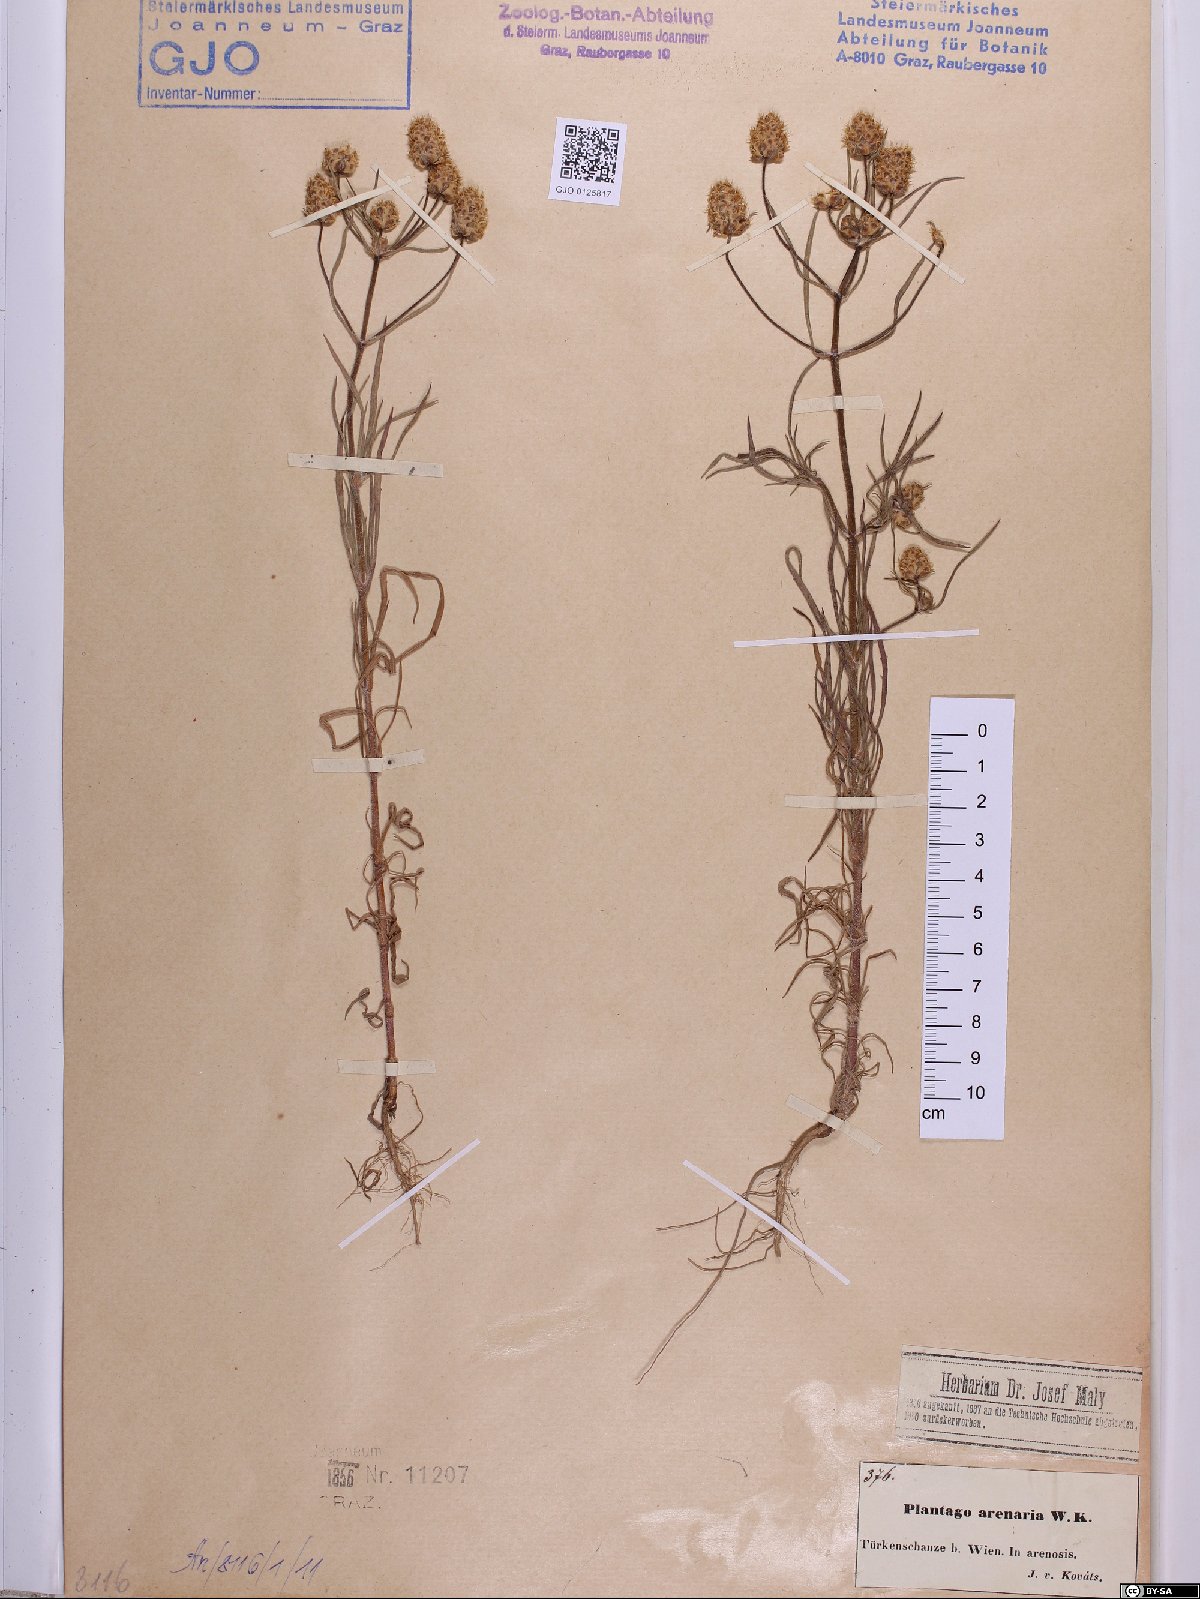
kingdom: Plantae
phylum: Tracheophyta
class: Magnoliopsida
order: Lamiales
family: Plantaginaceae
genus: Plantago
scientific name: Plantago arenaria
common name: Branched plantain
